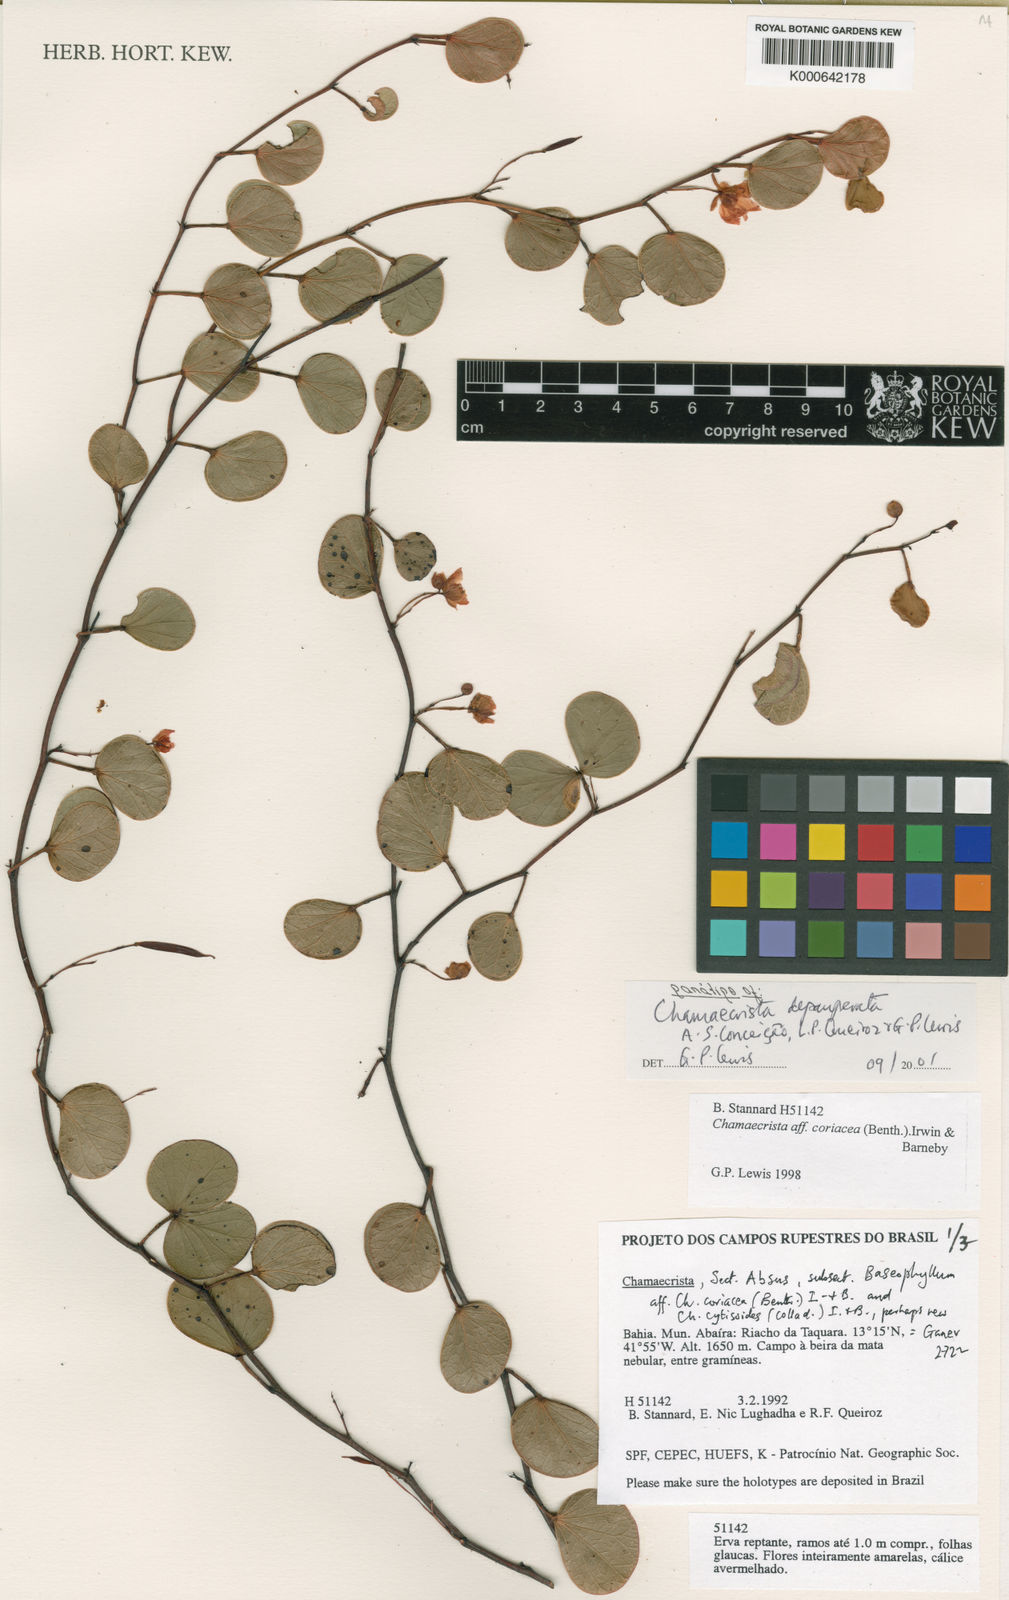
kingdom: Plantae
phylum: Tracheophyta
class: Magnoliopsida
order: Fabales
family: Fabaceae
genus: Chamaecrista
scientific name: Chamaecrista depauperata
